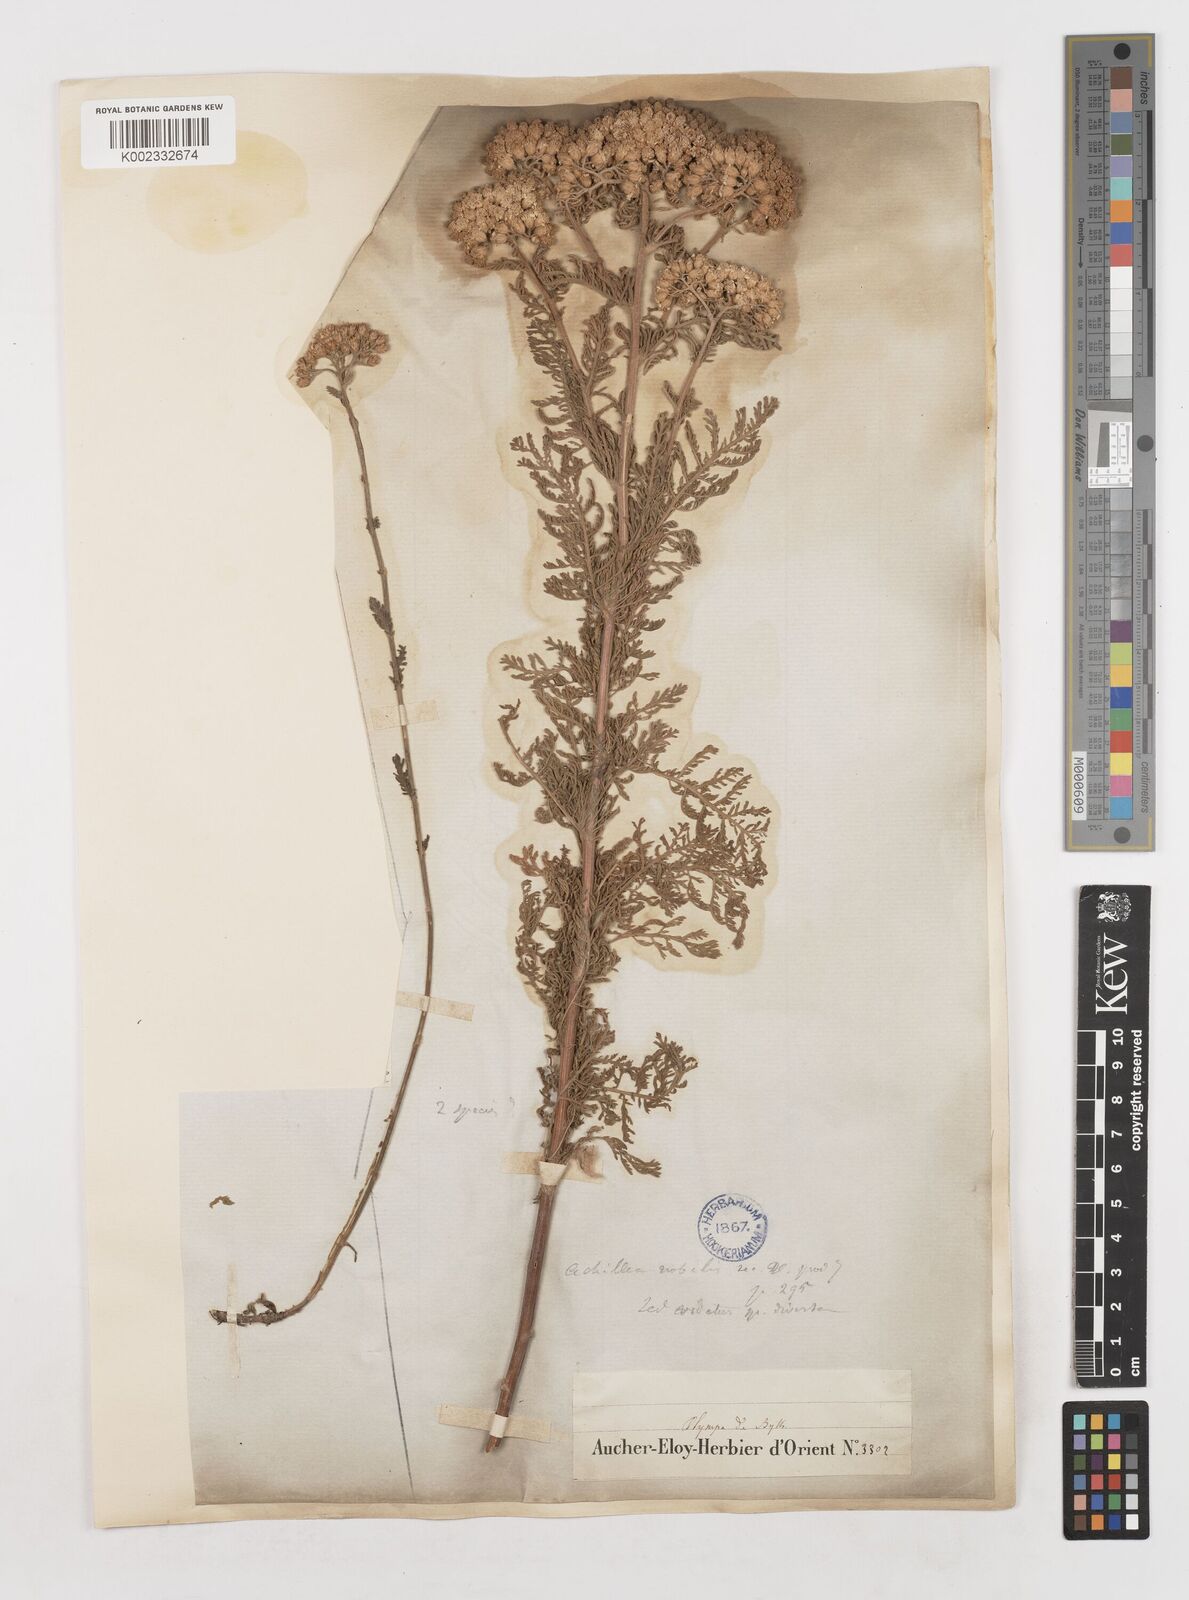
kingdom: Plantae
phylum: Tracheophyta
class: Magnoliopsida
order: Asterales
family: Asteraceae
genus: Achillea
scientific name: Achillea nobilis
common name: Noble yarrow
